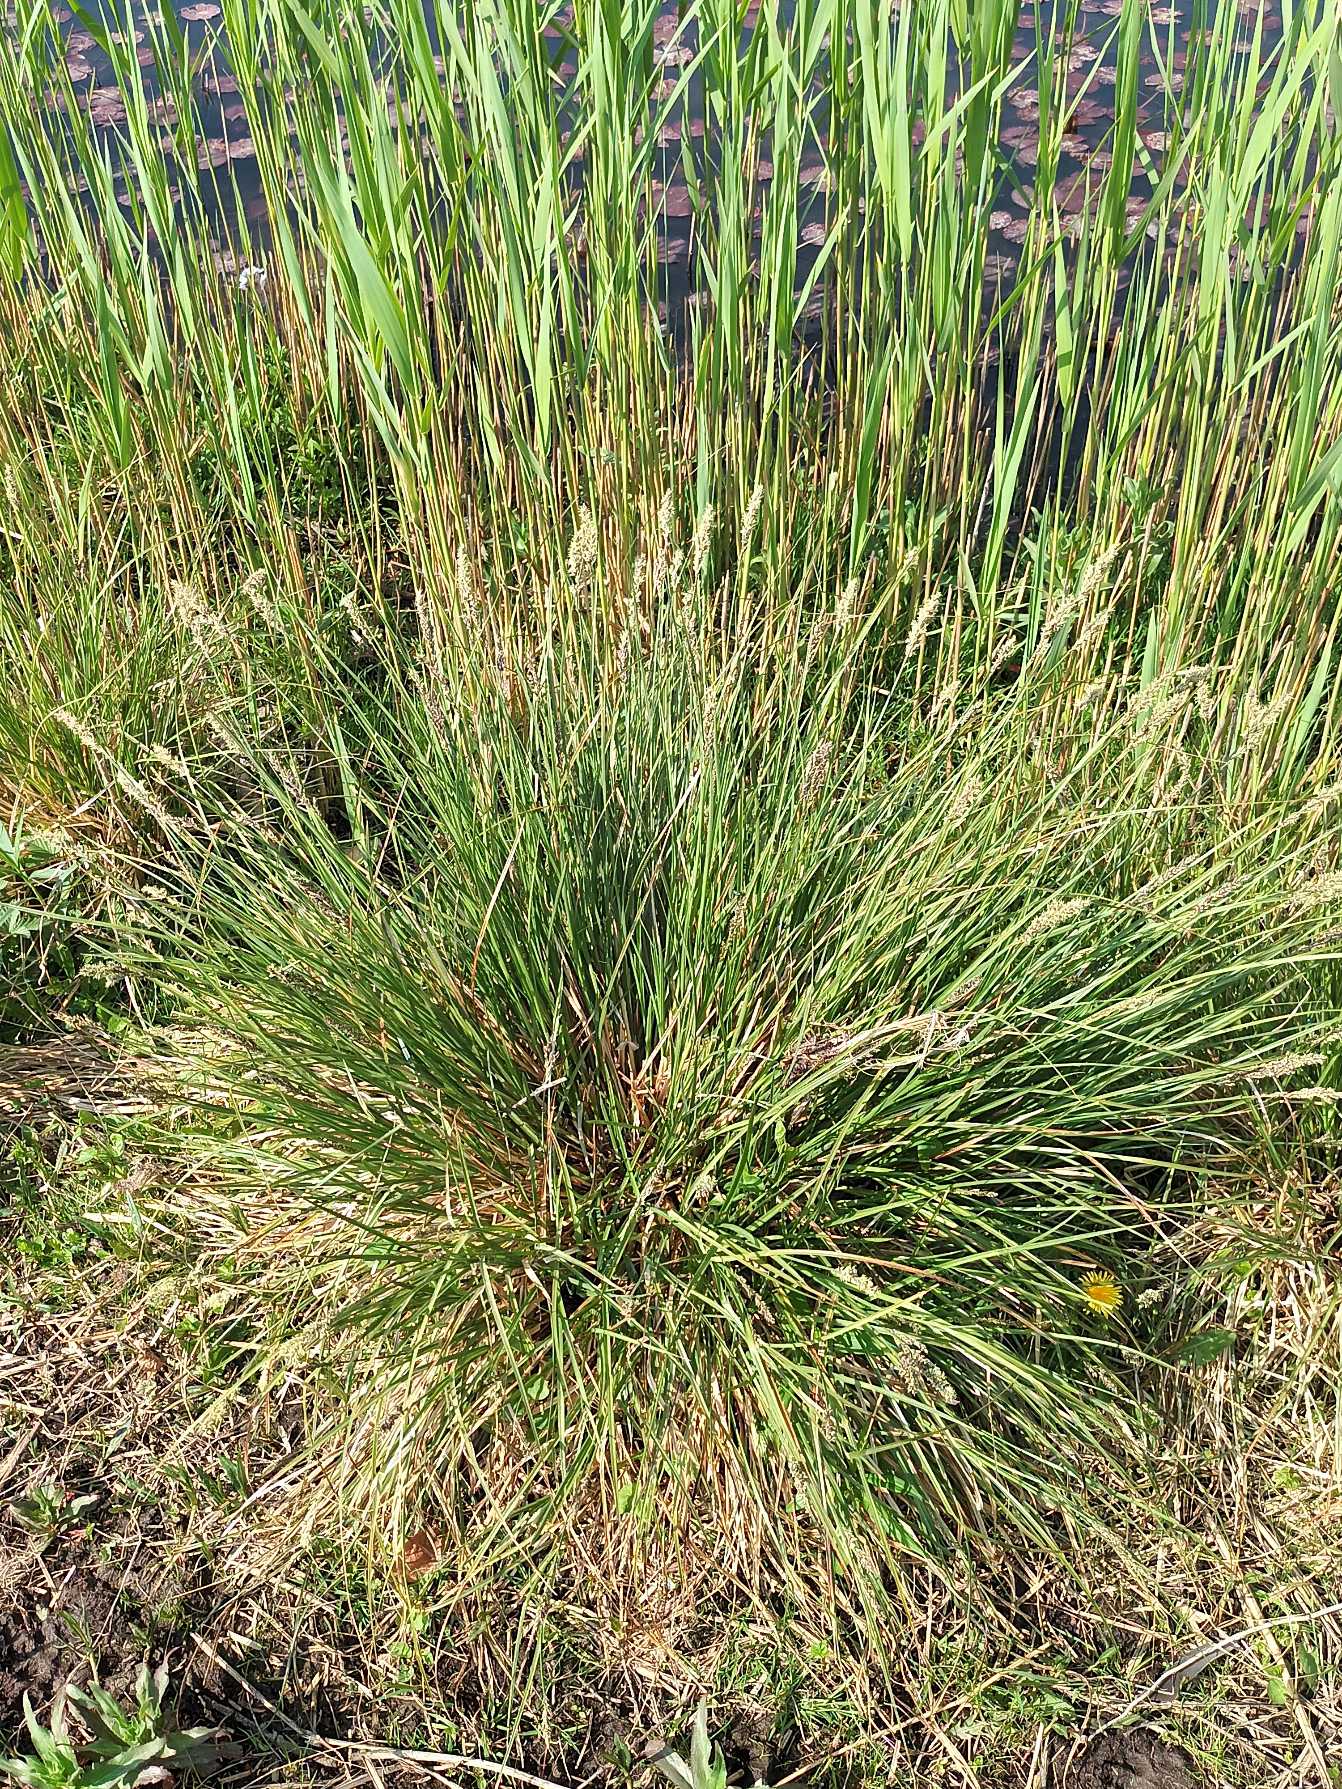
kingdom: Plantae
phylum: Tracheophyta
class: Liliopsida
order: Poales
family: Cyperaceae
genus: Carex
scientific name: Carex paniculata
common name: Top-star
